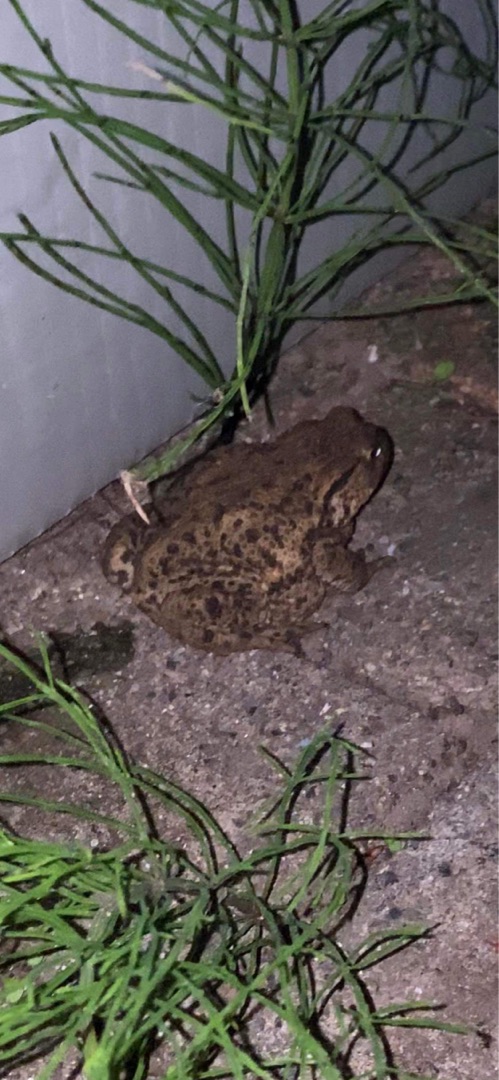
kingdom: Animalia
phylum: Chordata
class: Amphibia
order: Anura
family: Bufonidae
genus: Bufo
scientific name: Bufo bufo
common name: Skrubtudse
